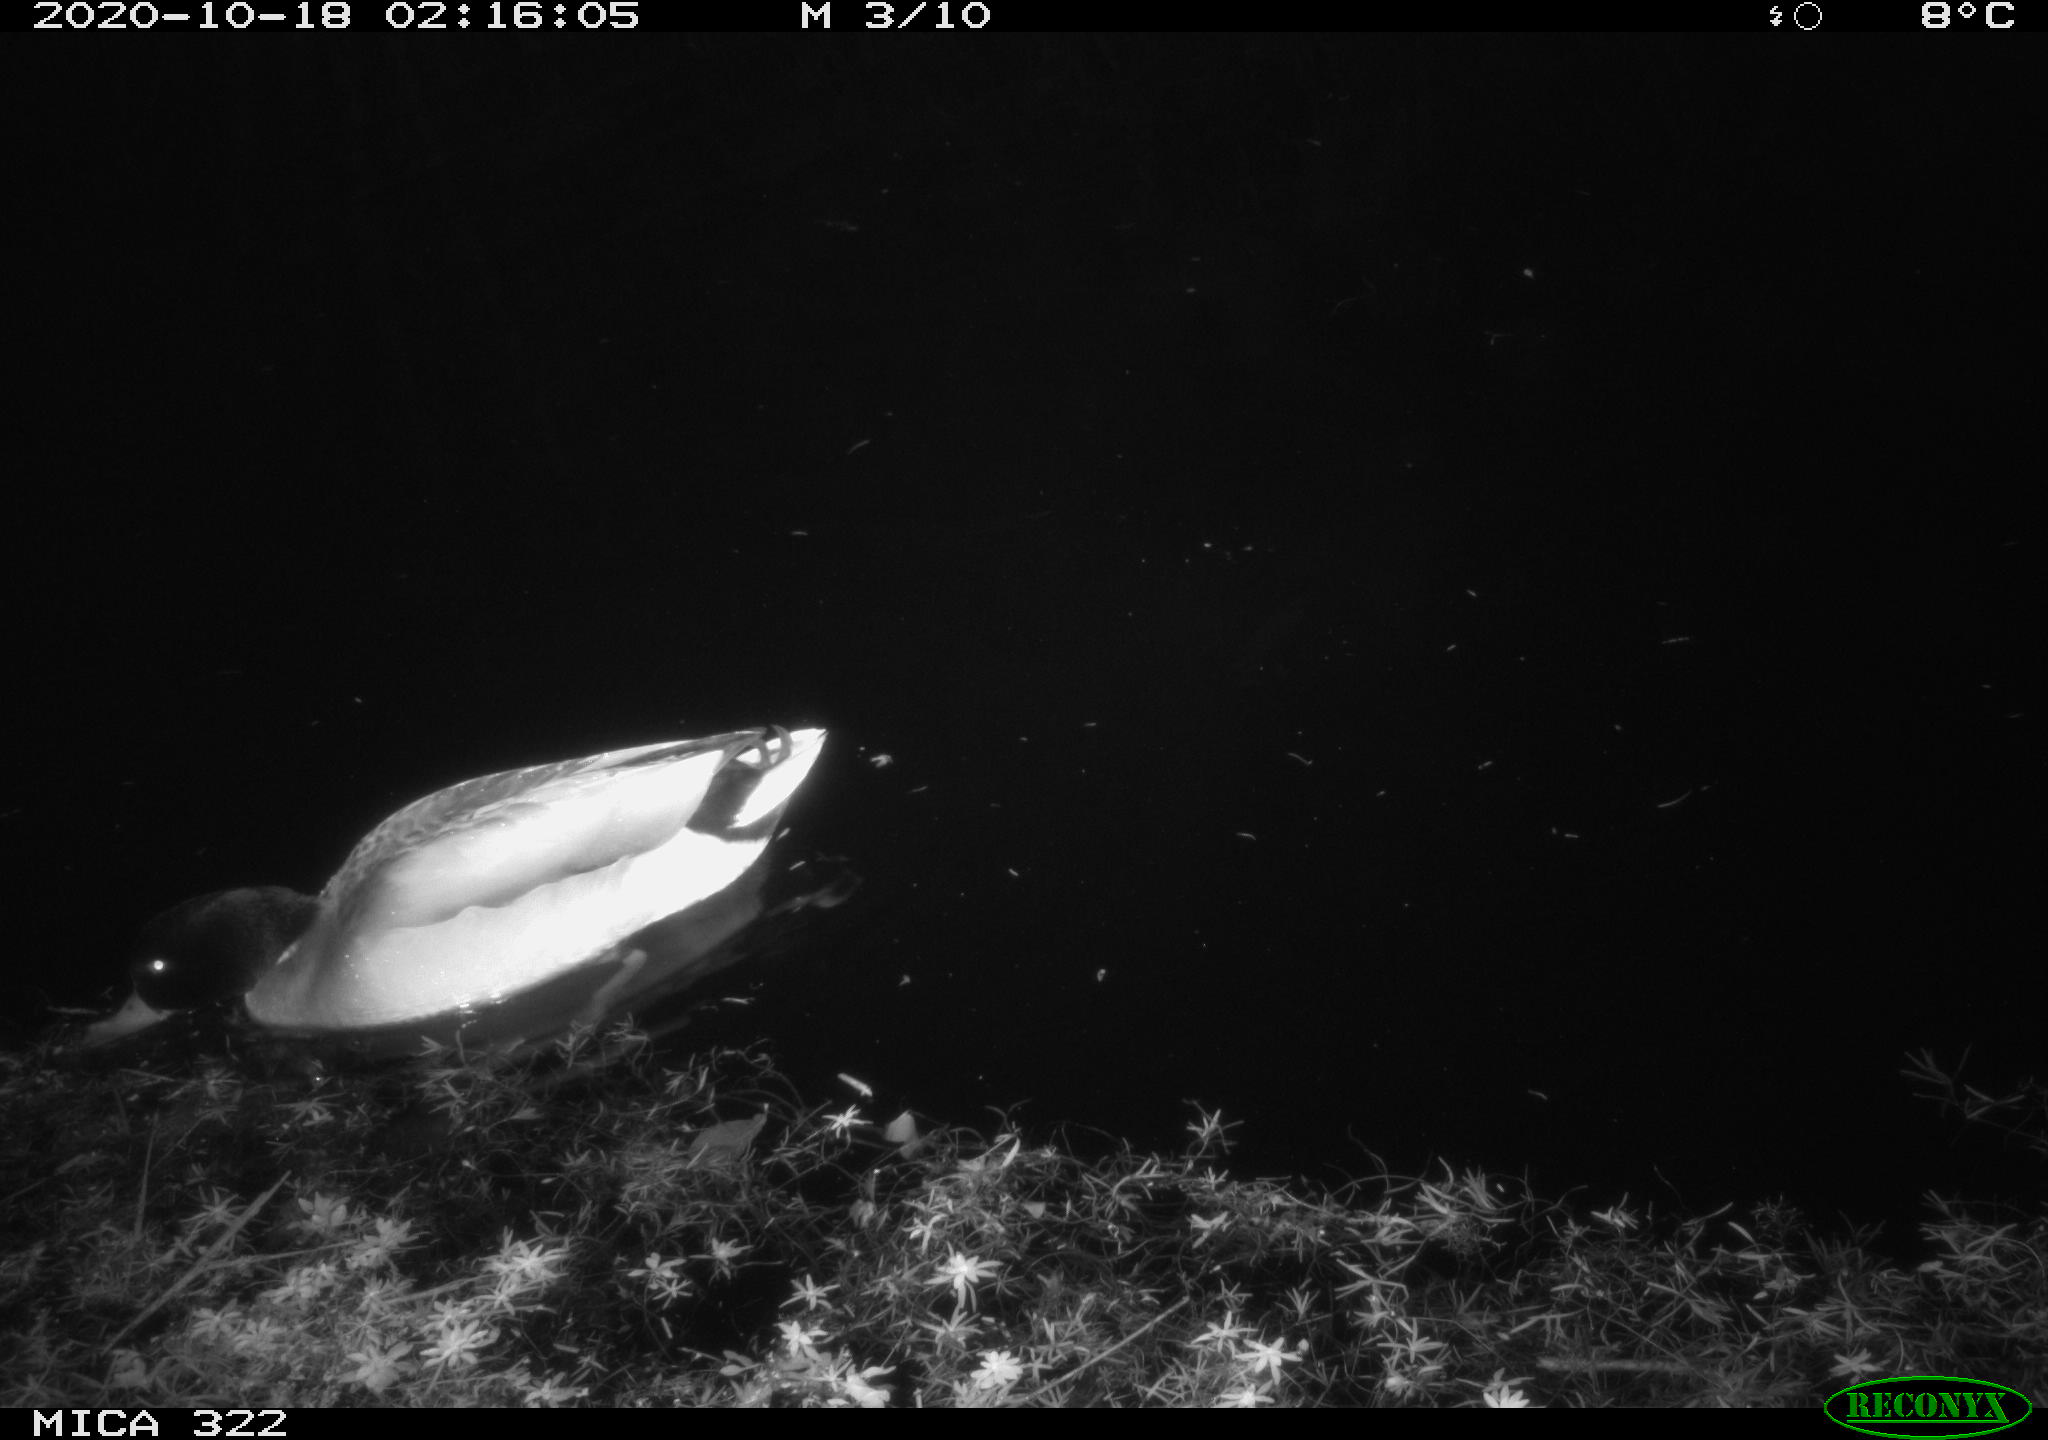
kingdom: Animalia
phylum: Chordata
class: Aves
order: Anseriformes
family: Anatidae
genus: Anas
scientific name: Anas platyrhynchos
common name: Mallard
